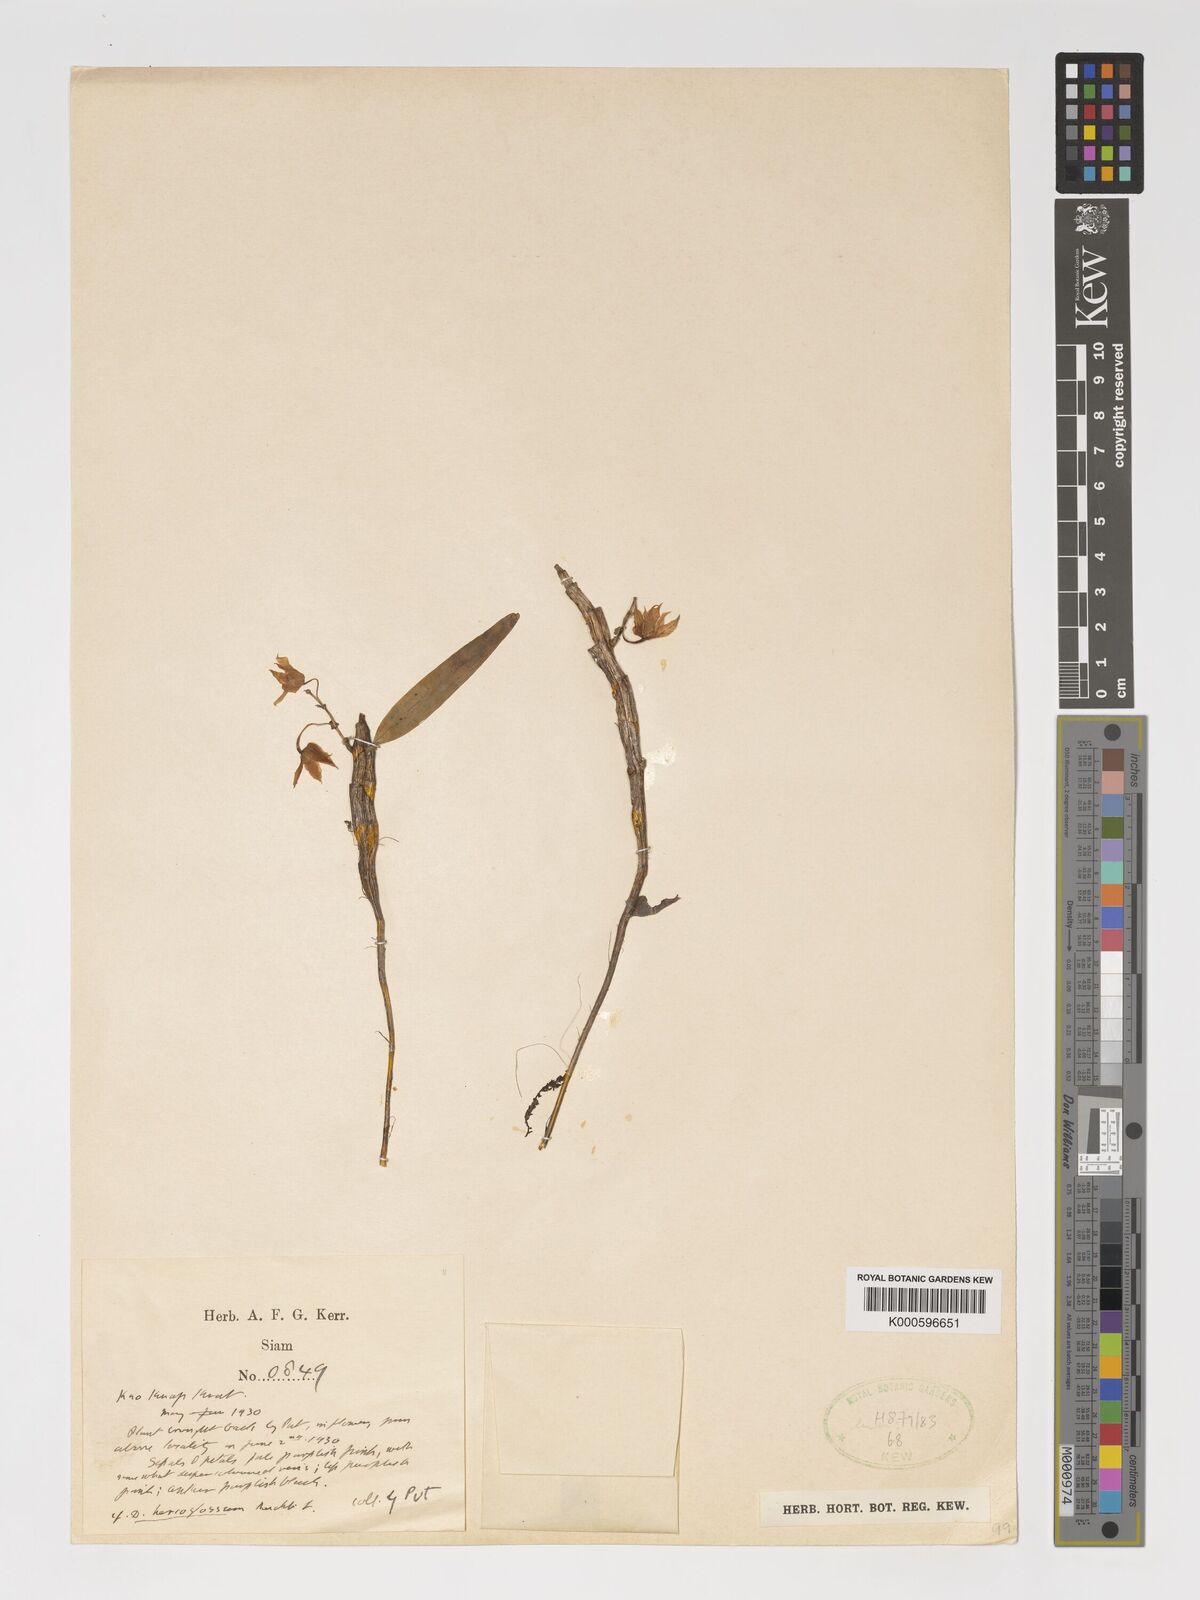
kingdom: Plantae
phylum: Tracheophyta
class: Liliopsida
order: Asparagales
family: Orchidaceae
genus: Dendrobium
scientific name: Dendrobium hercoglossum
